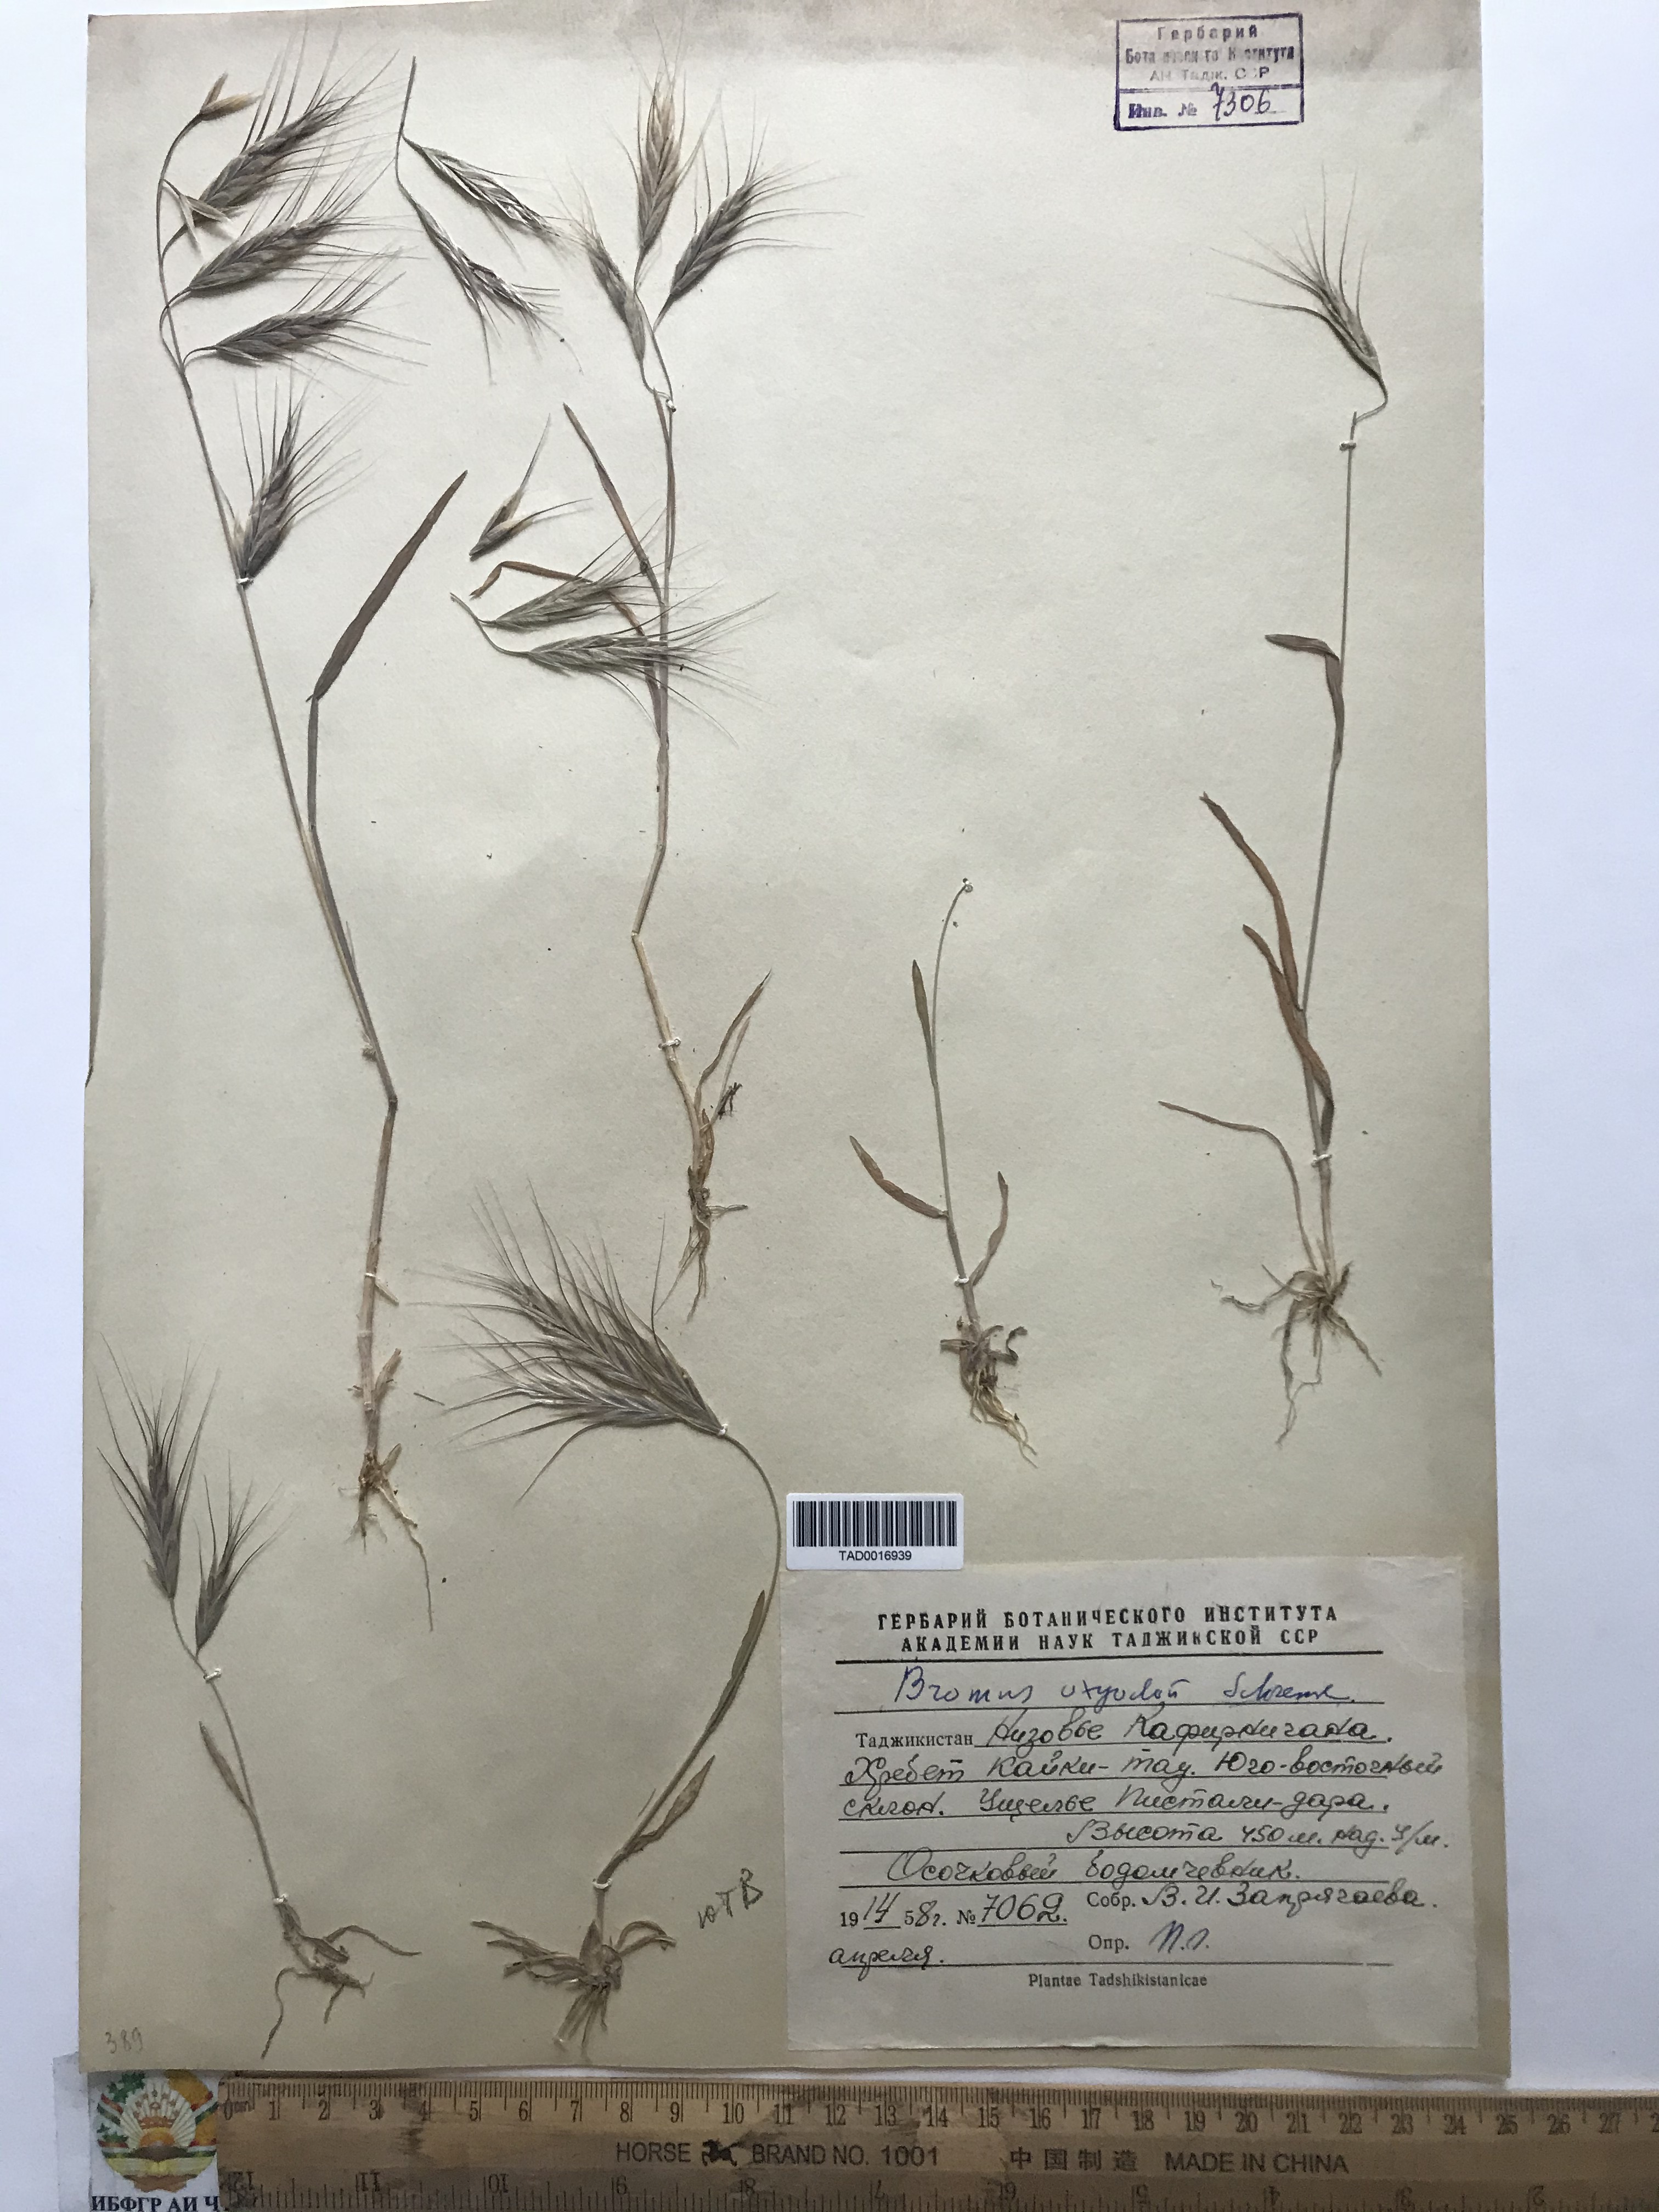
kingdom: Plantae
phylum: Tracheophyta
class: Liliopsida
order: Poales
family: Poaceae
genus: Bromus
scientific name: Bromus oxyodon
